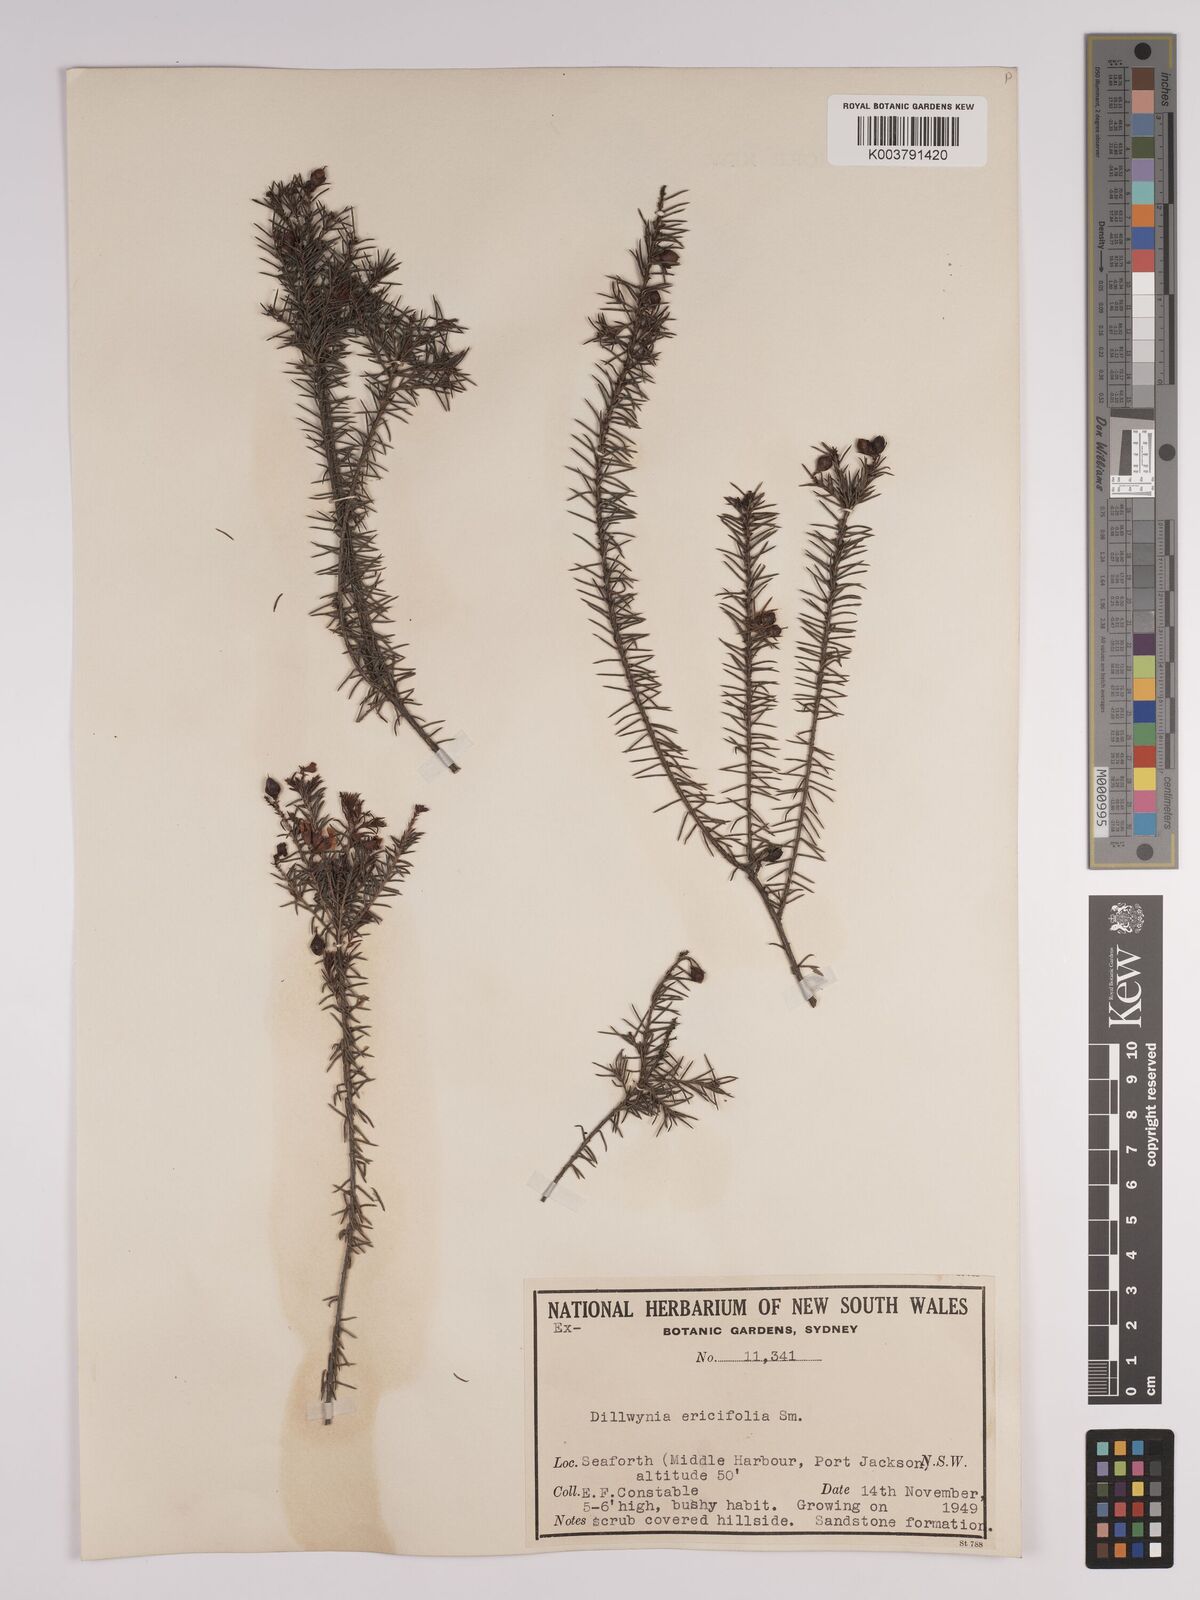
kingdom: Plantae
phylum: Tracheophyta
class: Magnoliopsida
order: Fabales
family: Fabaceae
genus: Dillwynia
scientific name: Dillwynia retorta
